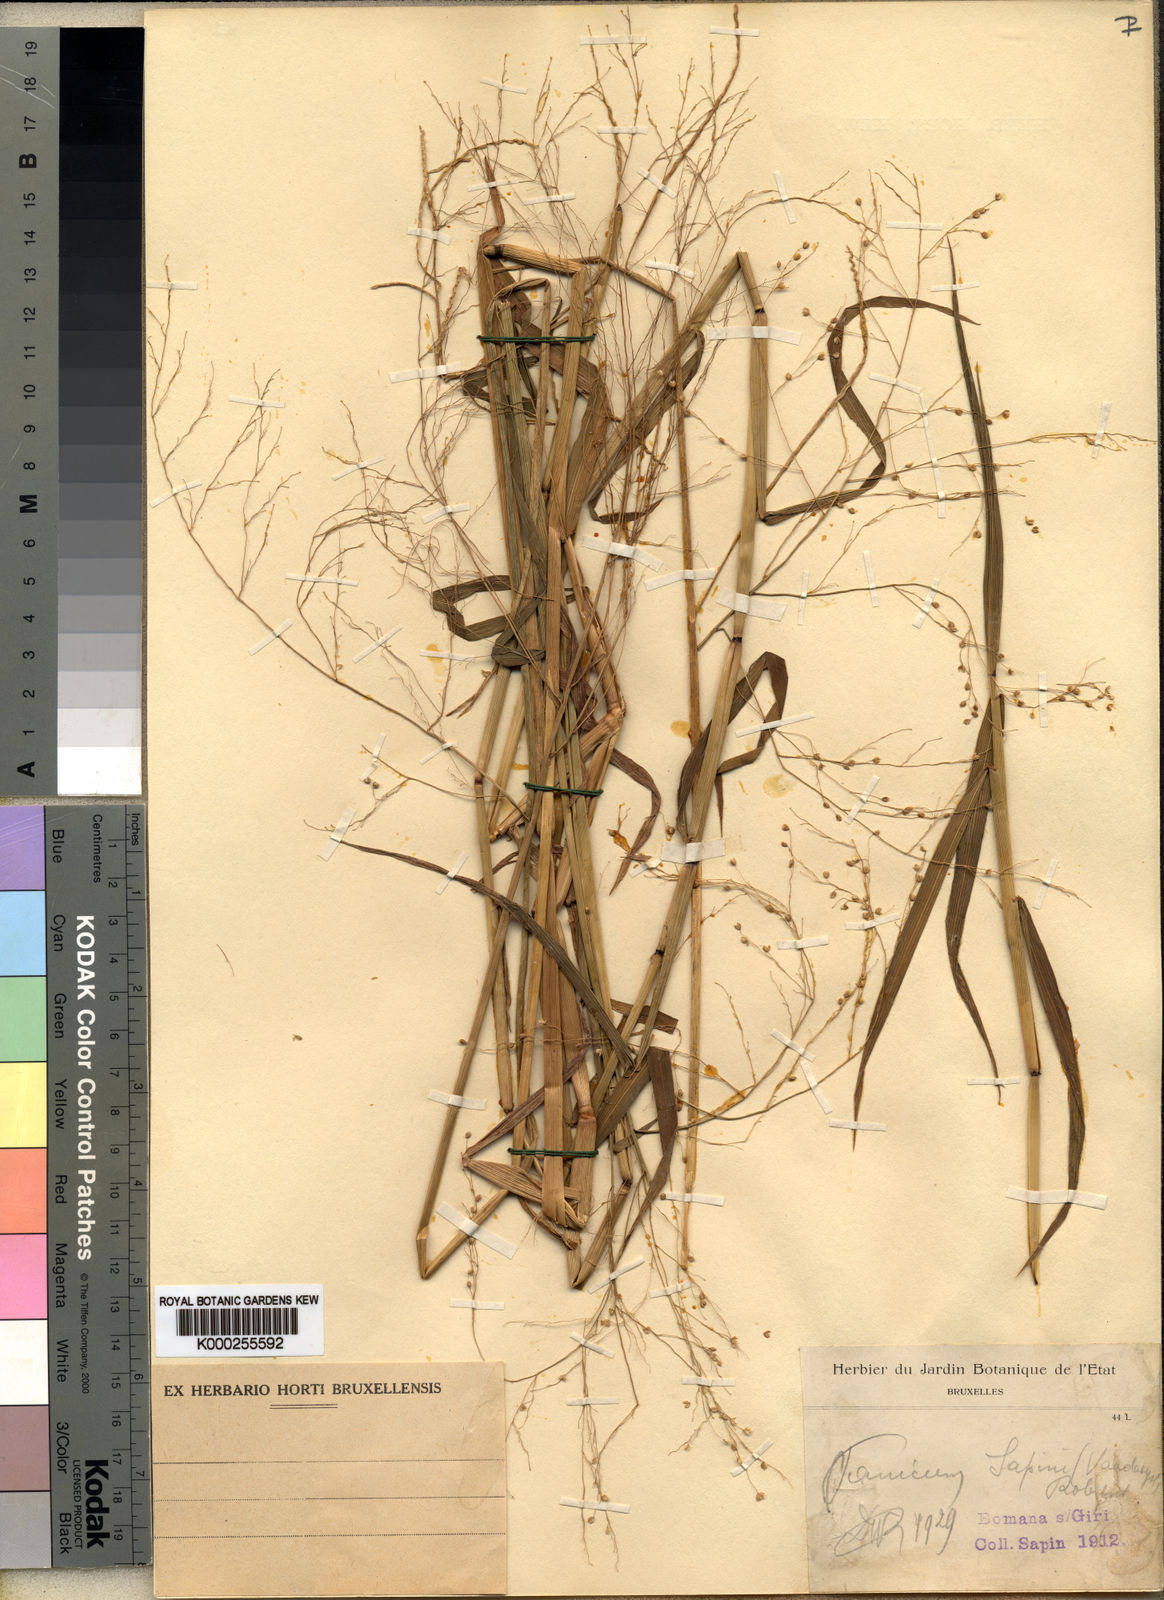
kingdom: Plantae
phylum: Tracheophyta
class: Liliopsida
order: Poales
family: Poaceae
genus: Trichanthecium
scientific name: Trichanthecium strictissimum
